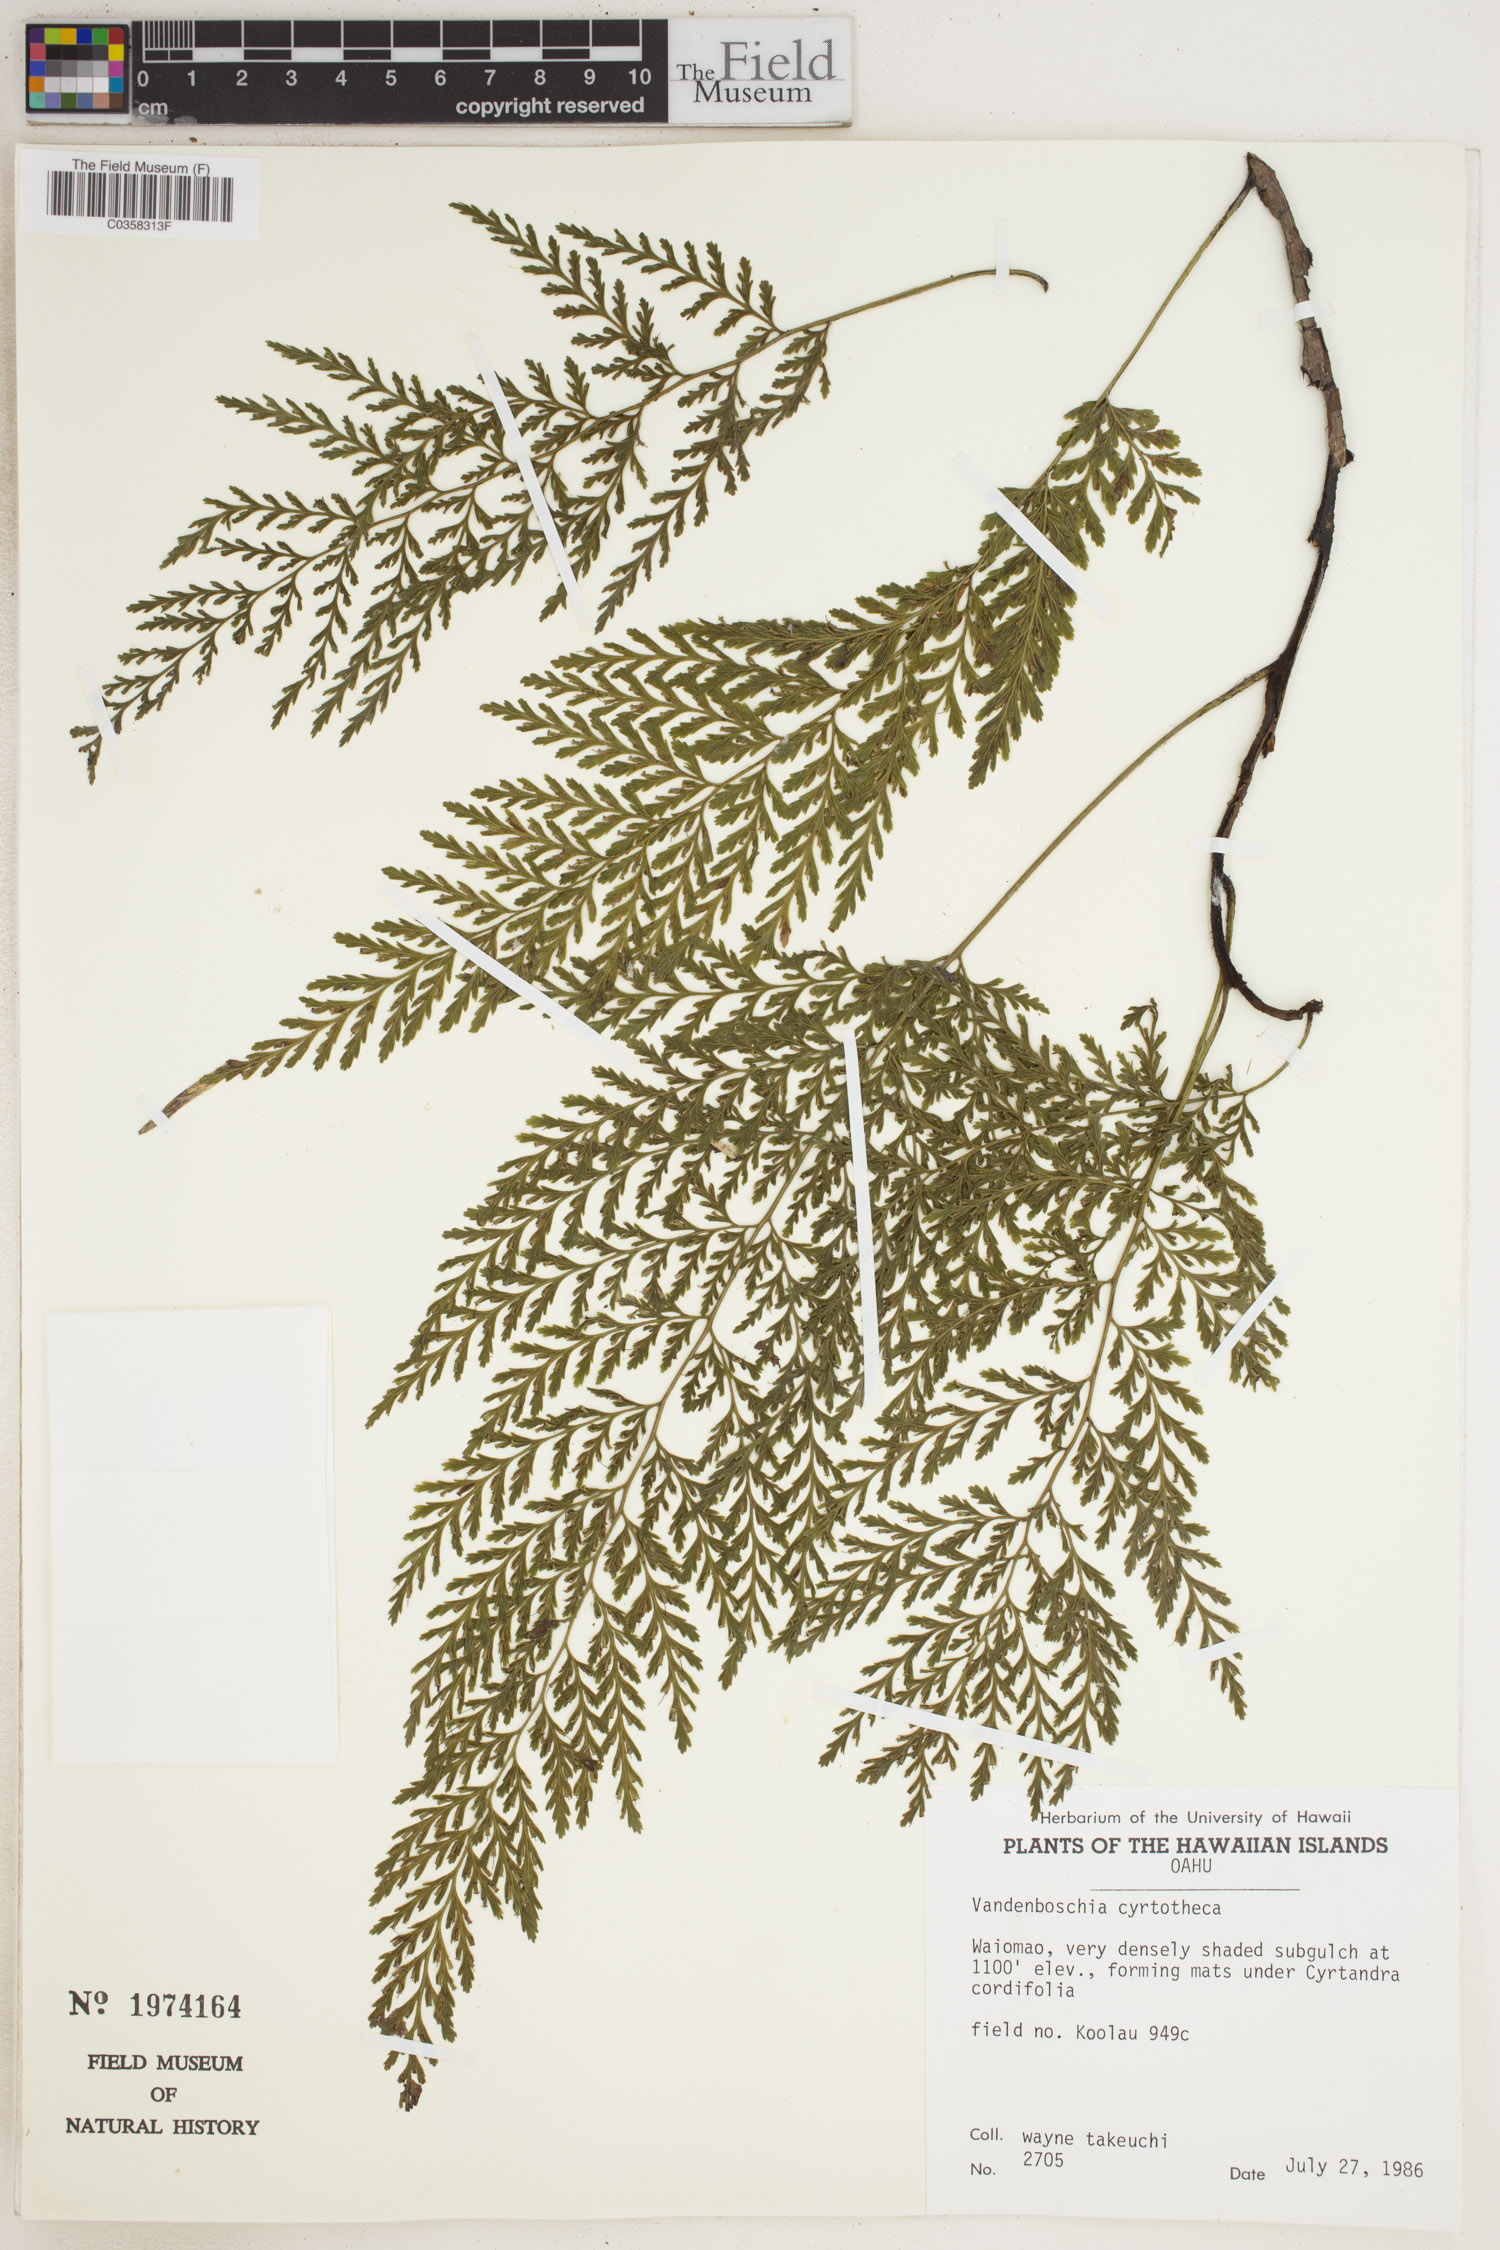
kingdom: Plantae
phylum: Tracheophyta
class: Polypodiopsida
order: Hymenophyllales
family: Hymenophyllaceae
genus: Vandenboschia
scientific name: Vandenboschia cyrtotheca
